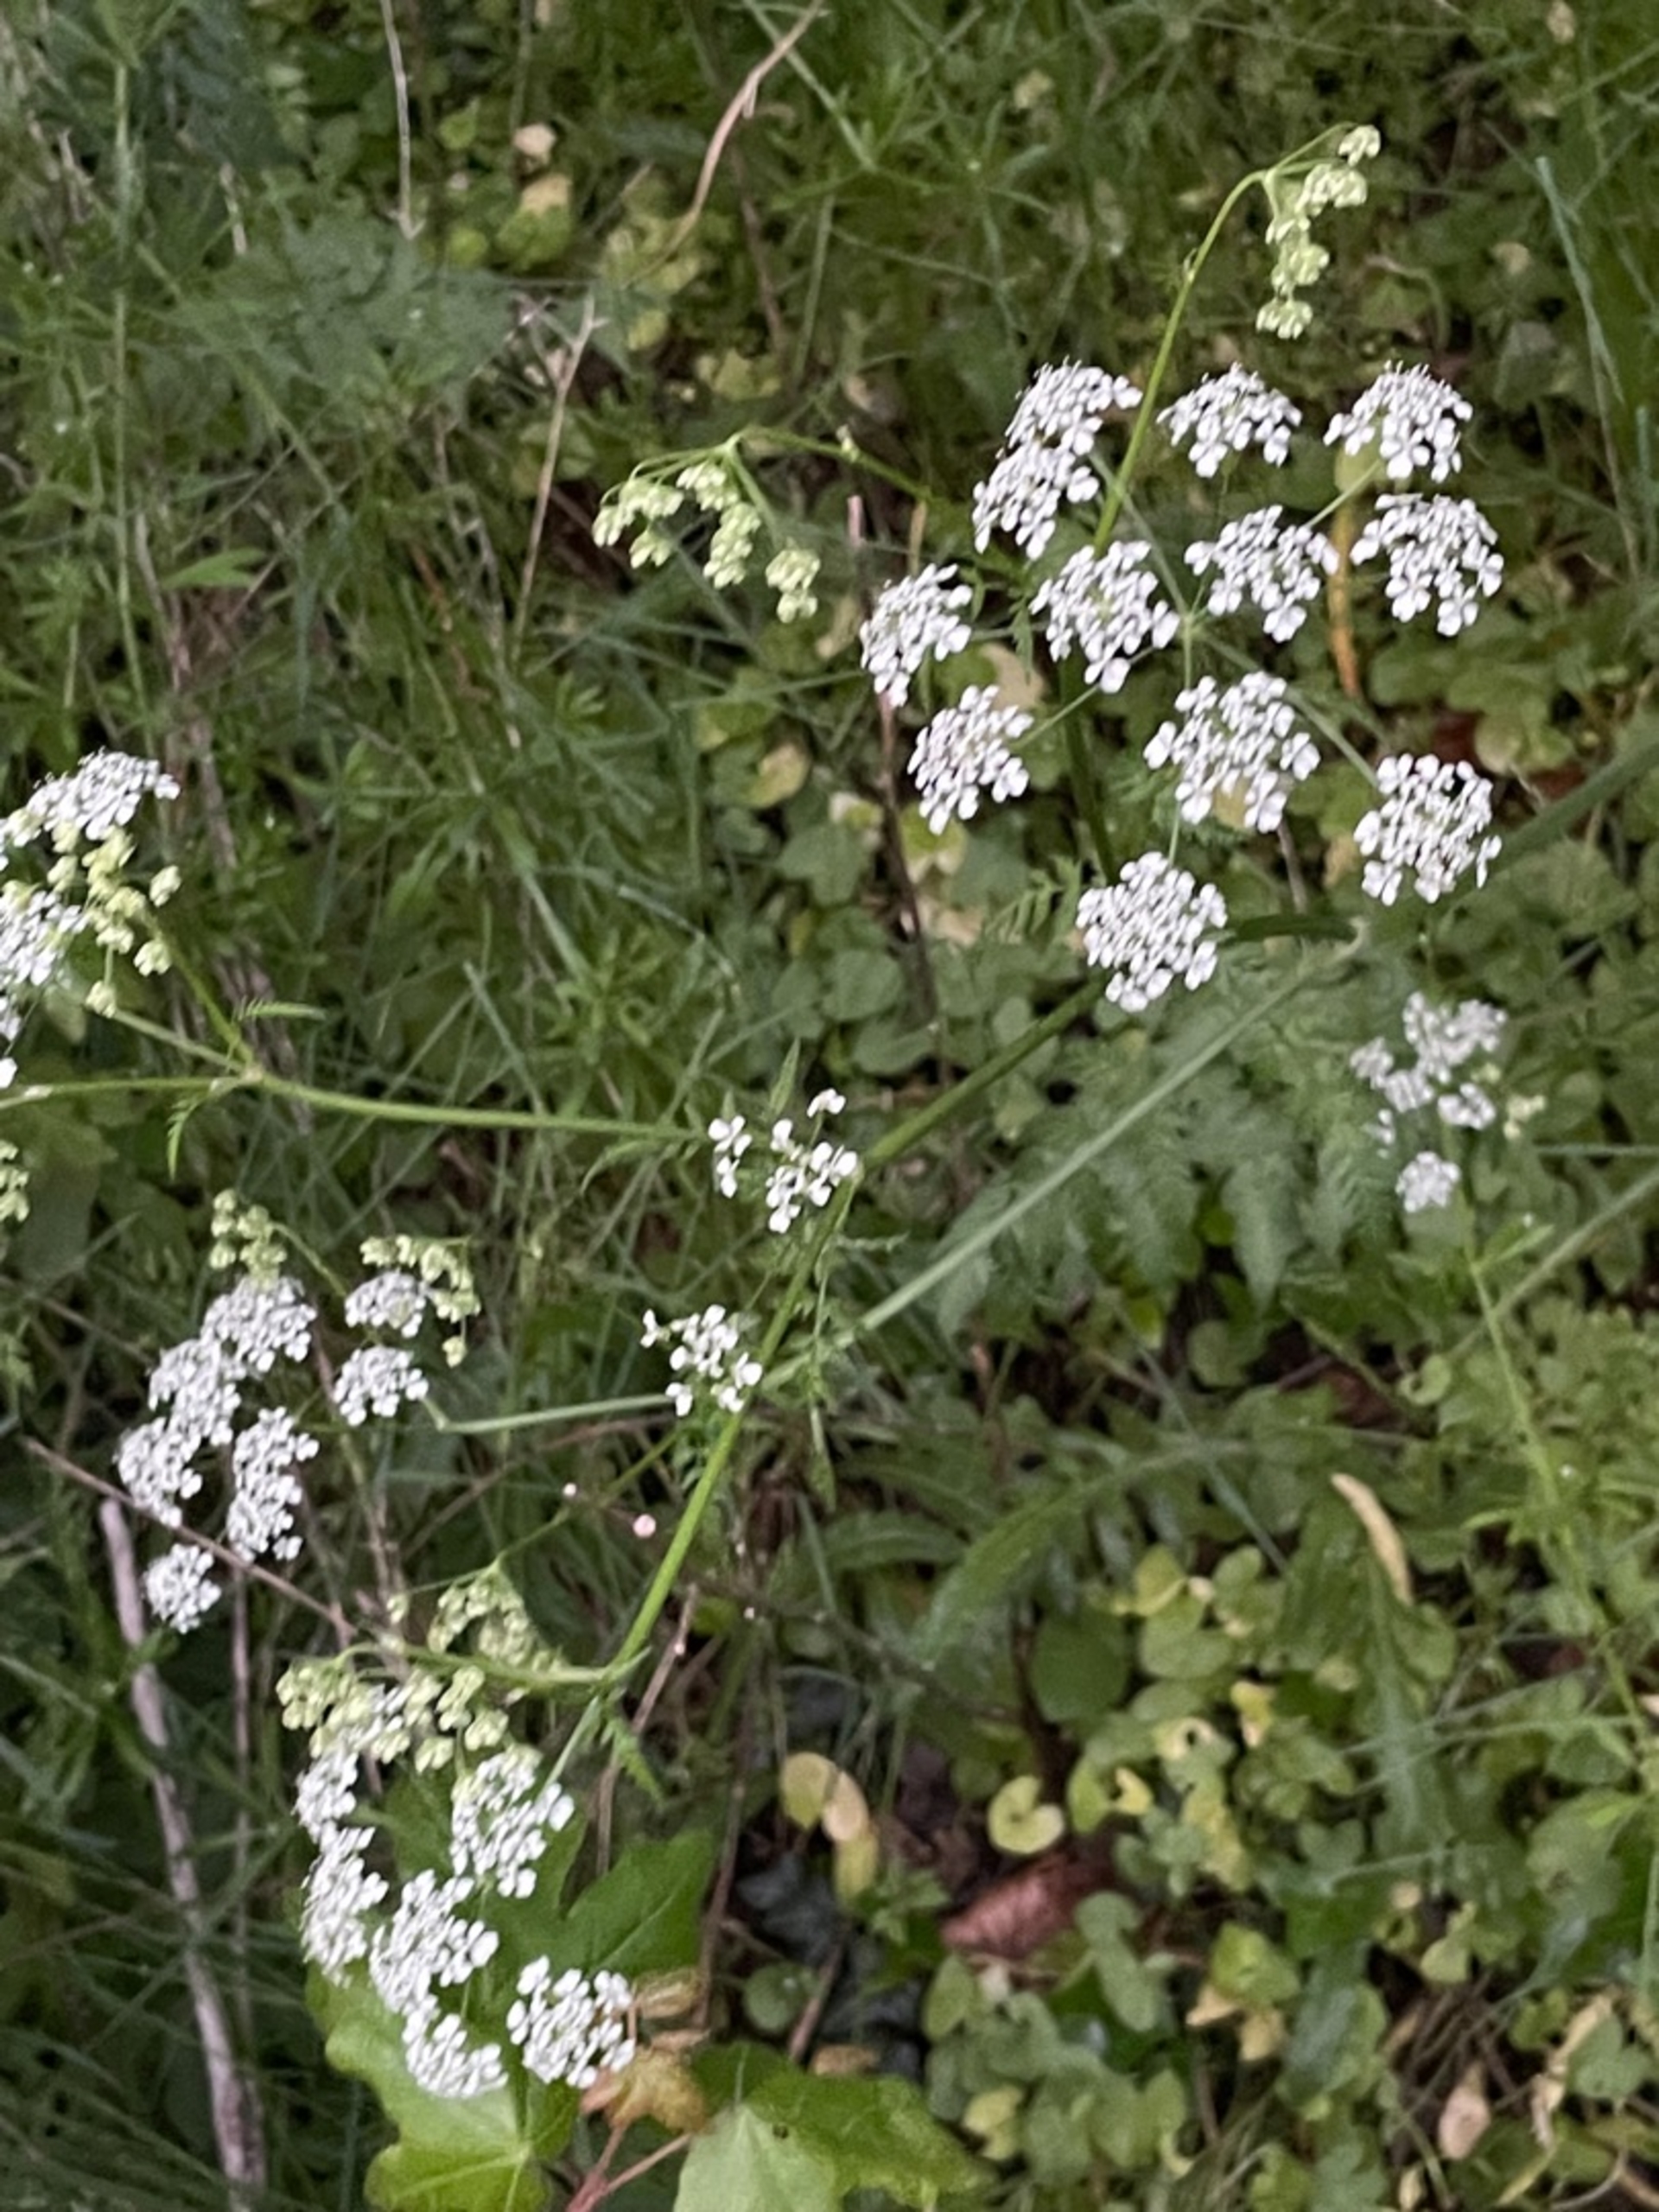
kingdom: Plantae
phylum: Tracheophyta
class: Magnoliopsida
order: Apiales
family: Apiaceae
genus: Anthriscus
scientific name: Anthriscus sylvestris
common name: Vild kørvel
